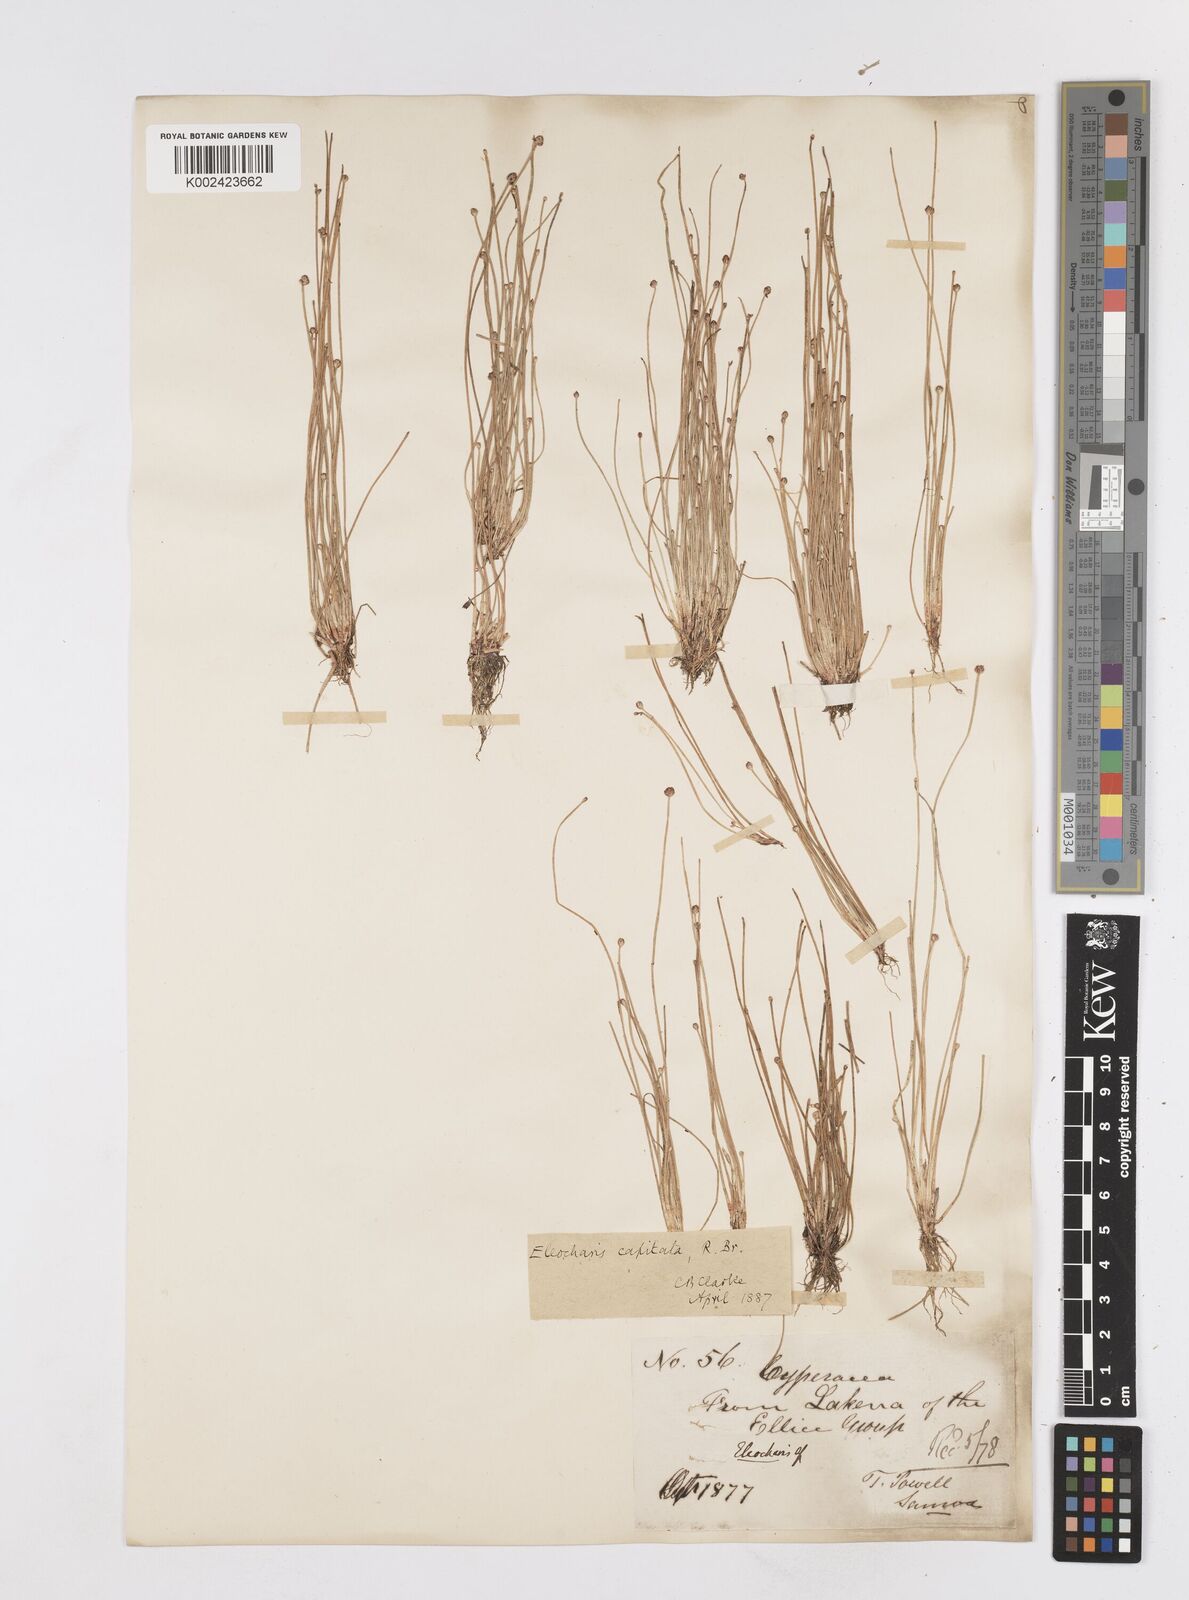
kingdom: Plantae
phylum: Tracheophyta
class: Liliopsida
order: Poales
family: Cyperaceae
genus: Eleocharis
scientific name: Eleocharis cylindrostachys
